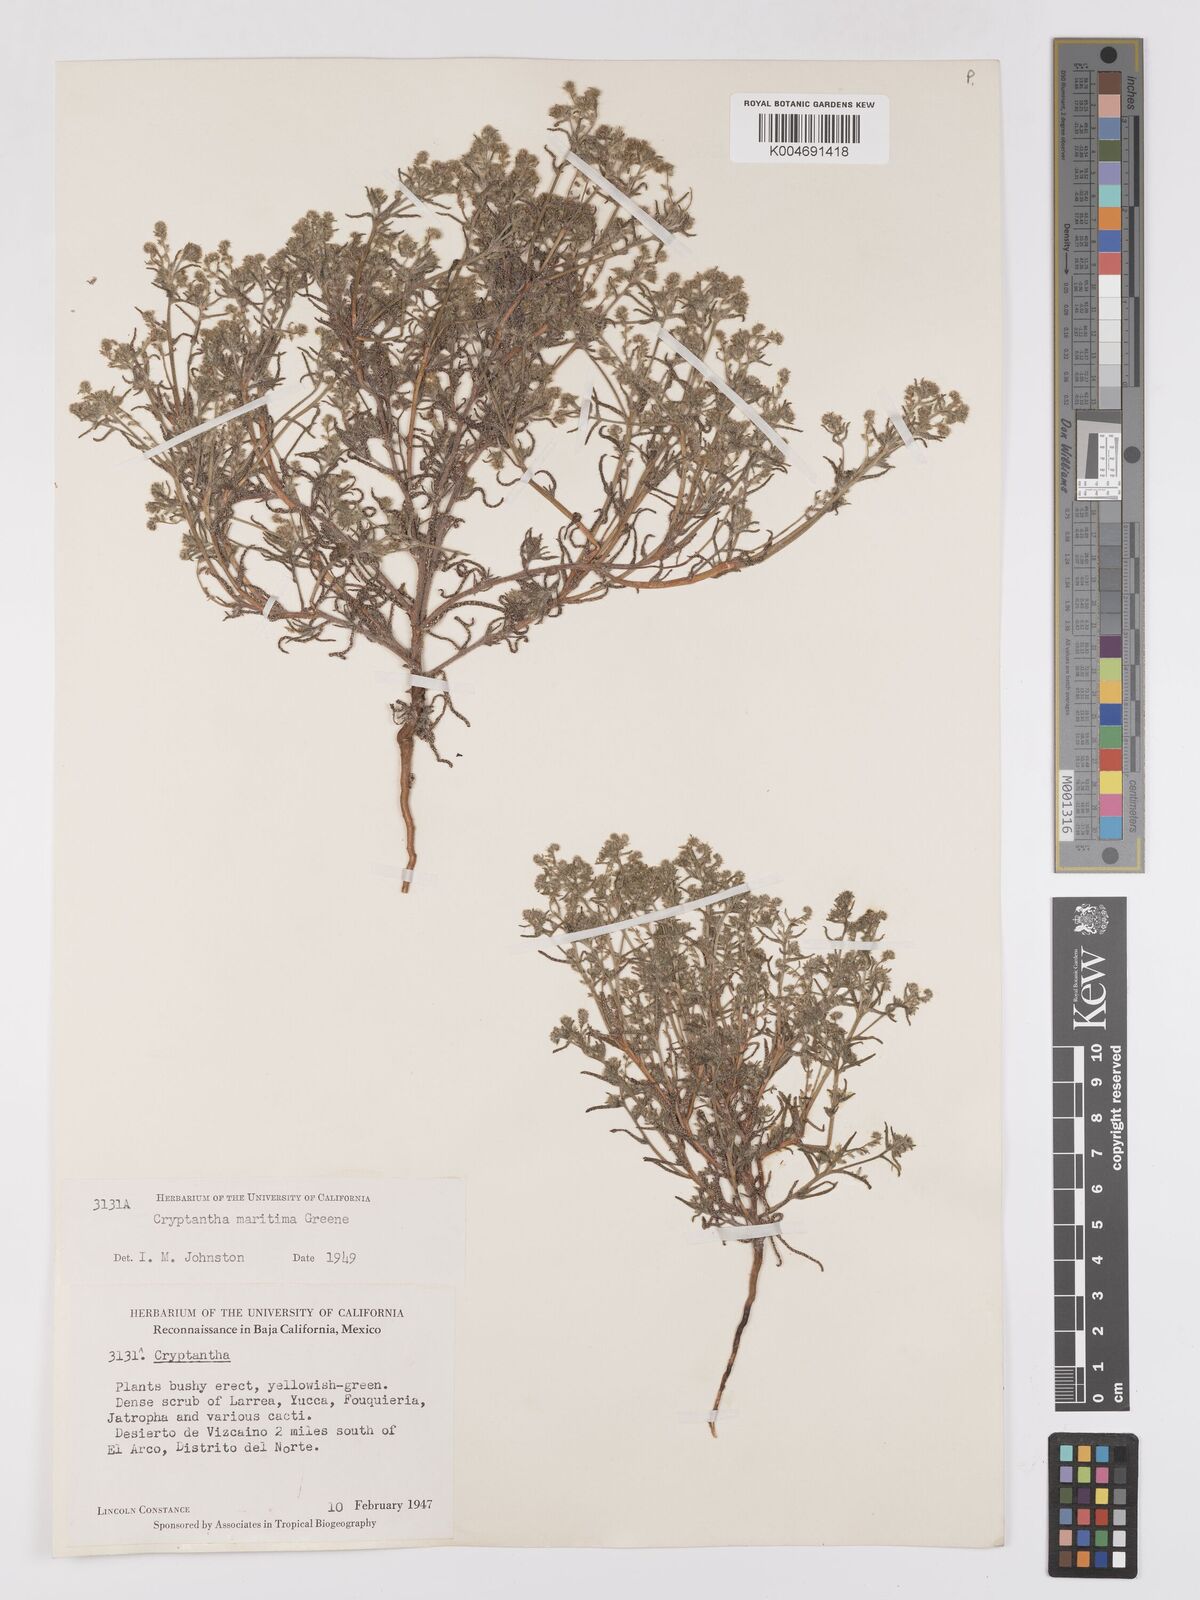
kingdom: Plantae
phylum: Tracheophyta
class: Magnoliopsida
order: Boraginales
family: Boraginaceae
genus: Cryptantha
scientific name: Cryptantha maritima
